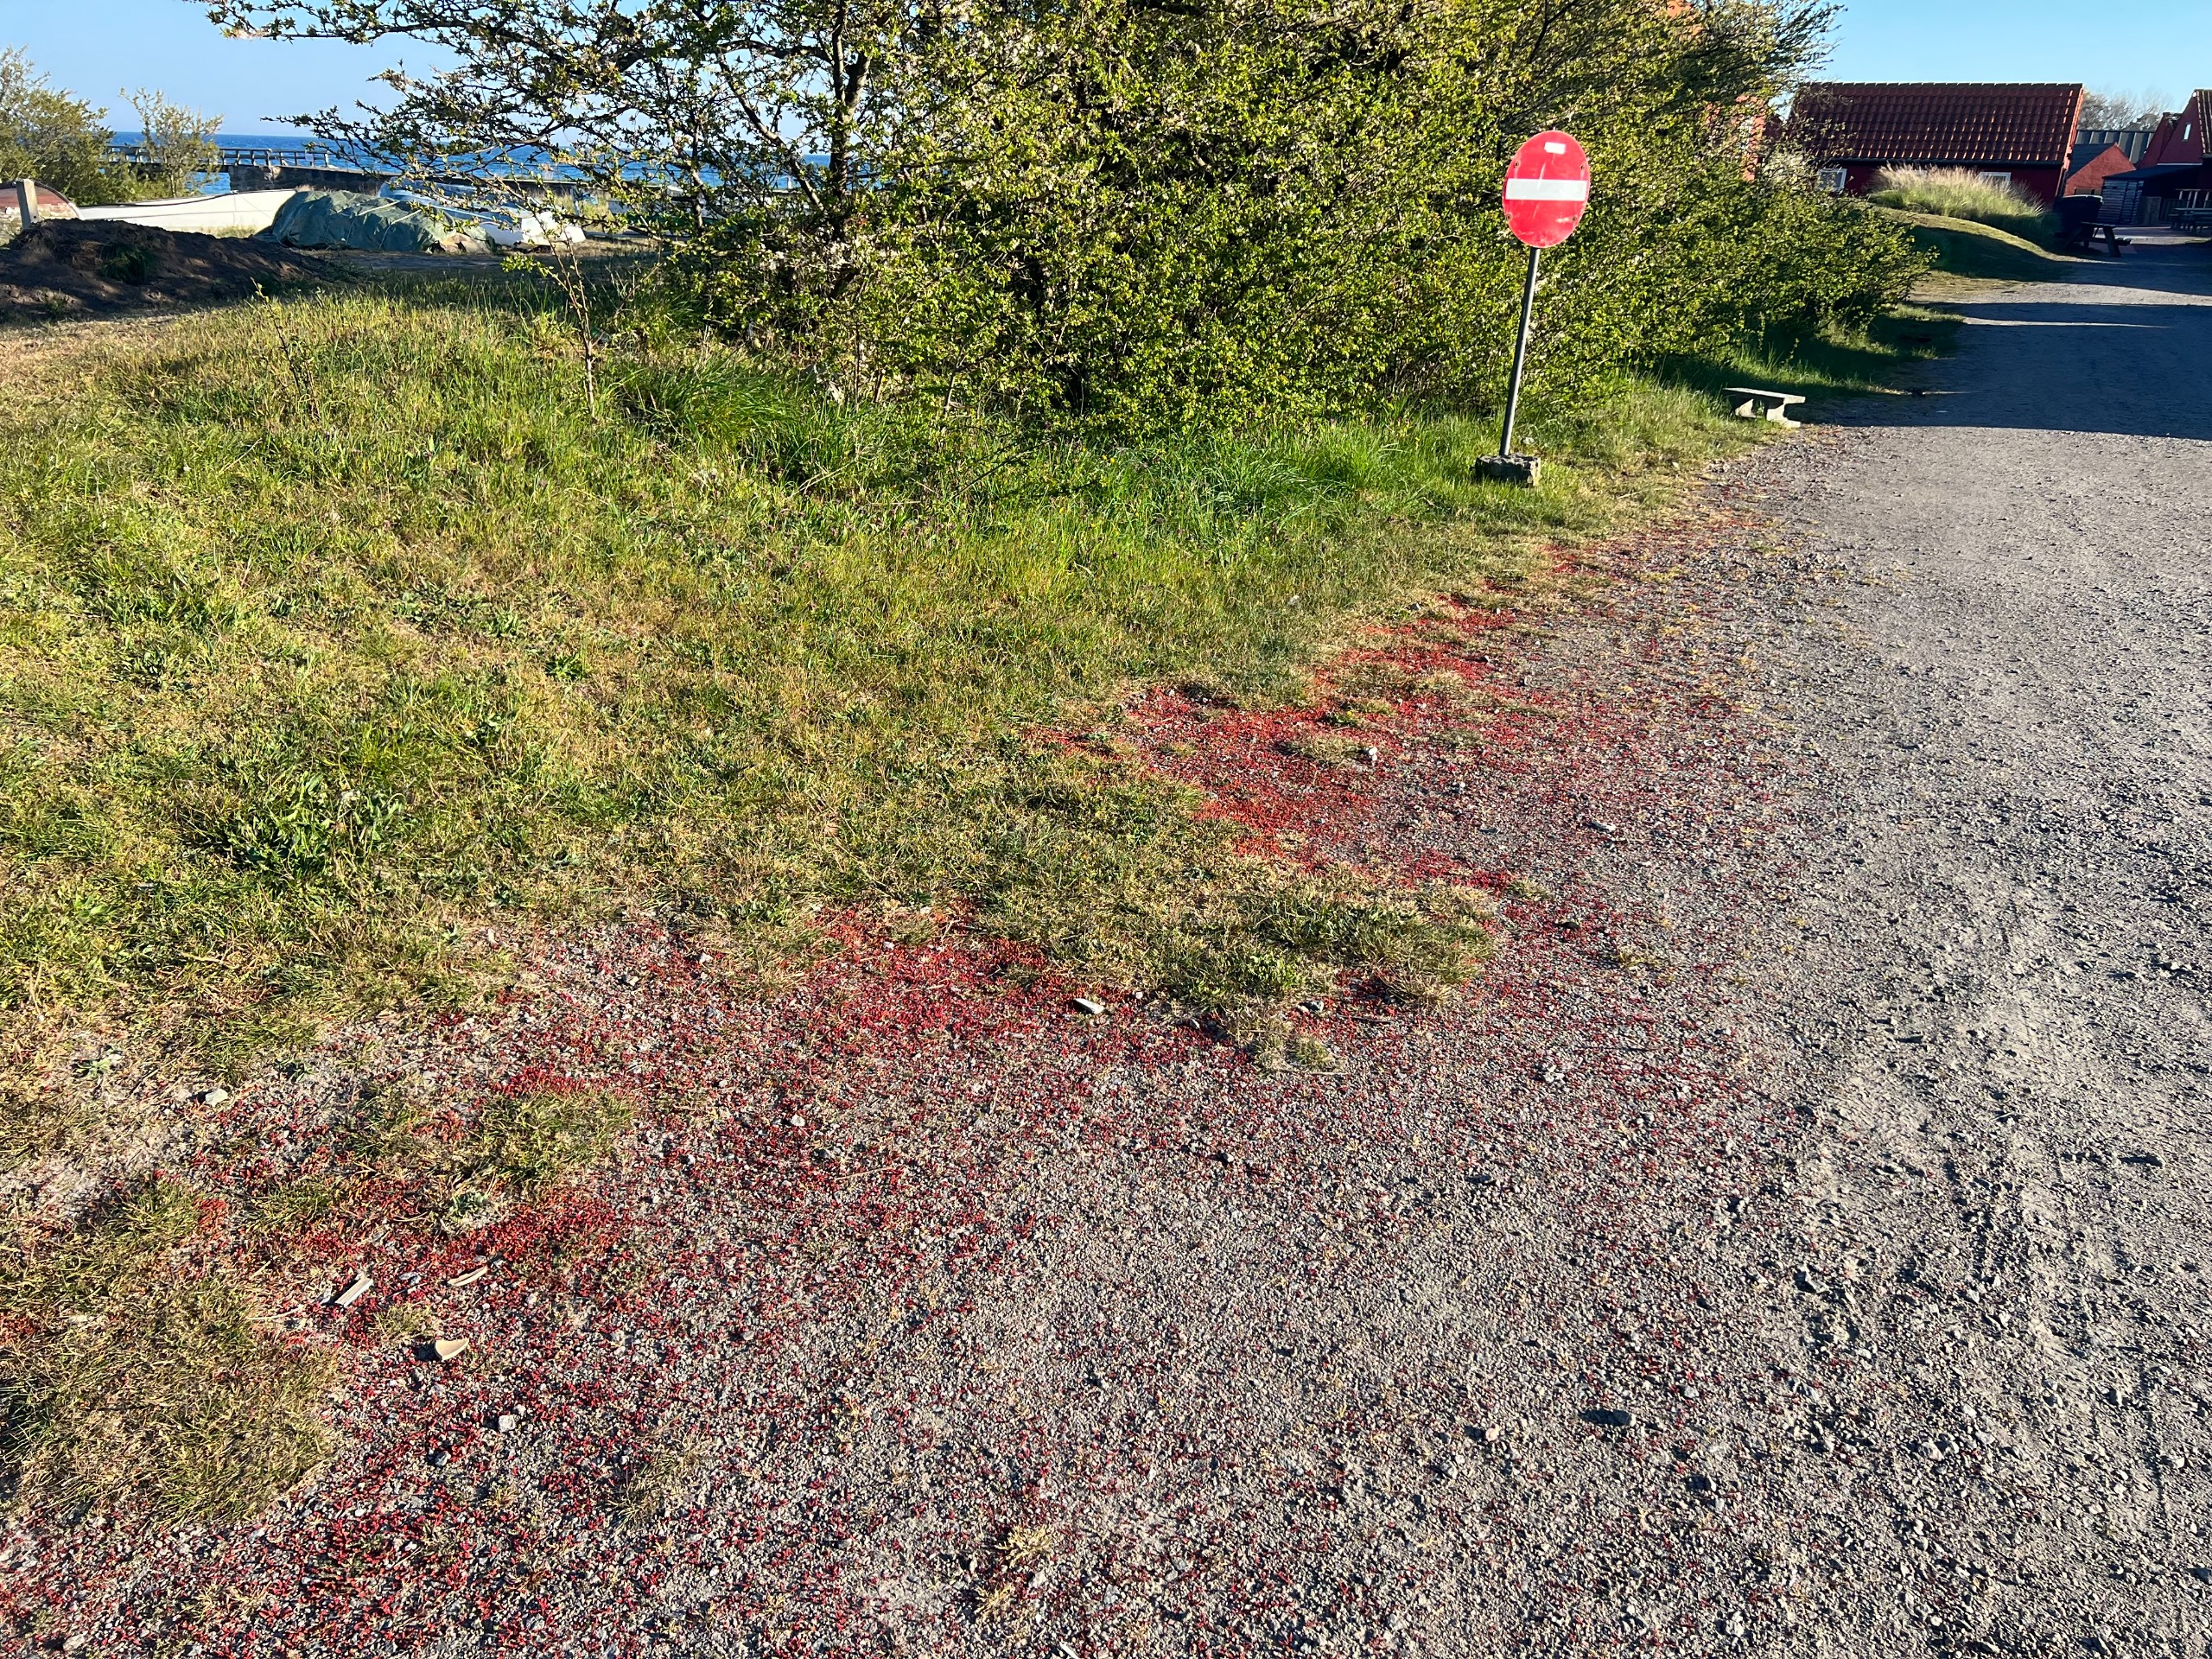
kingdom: Plantae
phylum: Tracheophyta
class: Magnoliopsida
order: Saxifragales
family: Crassulaceae
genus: Crassula
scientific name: Crassula tillaea
